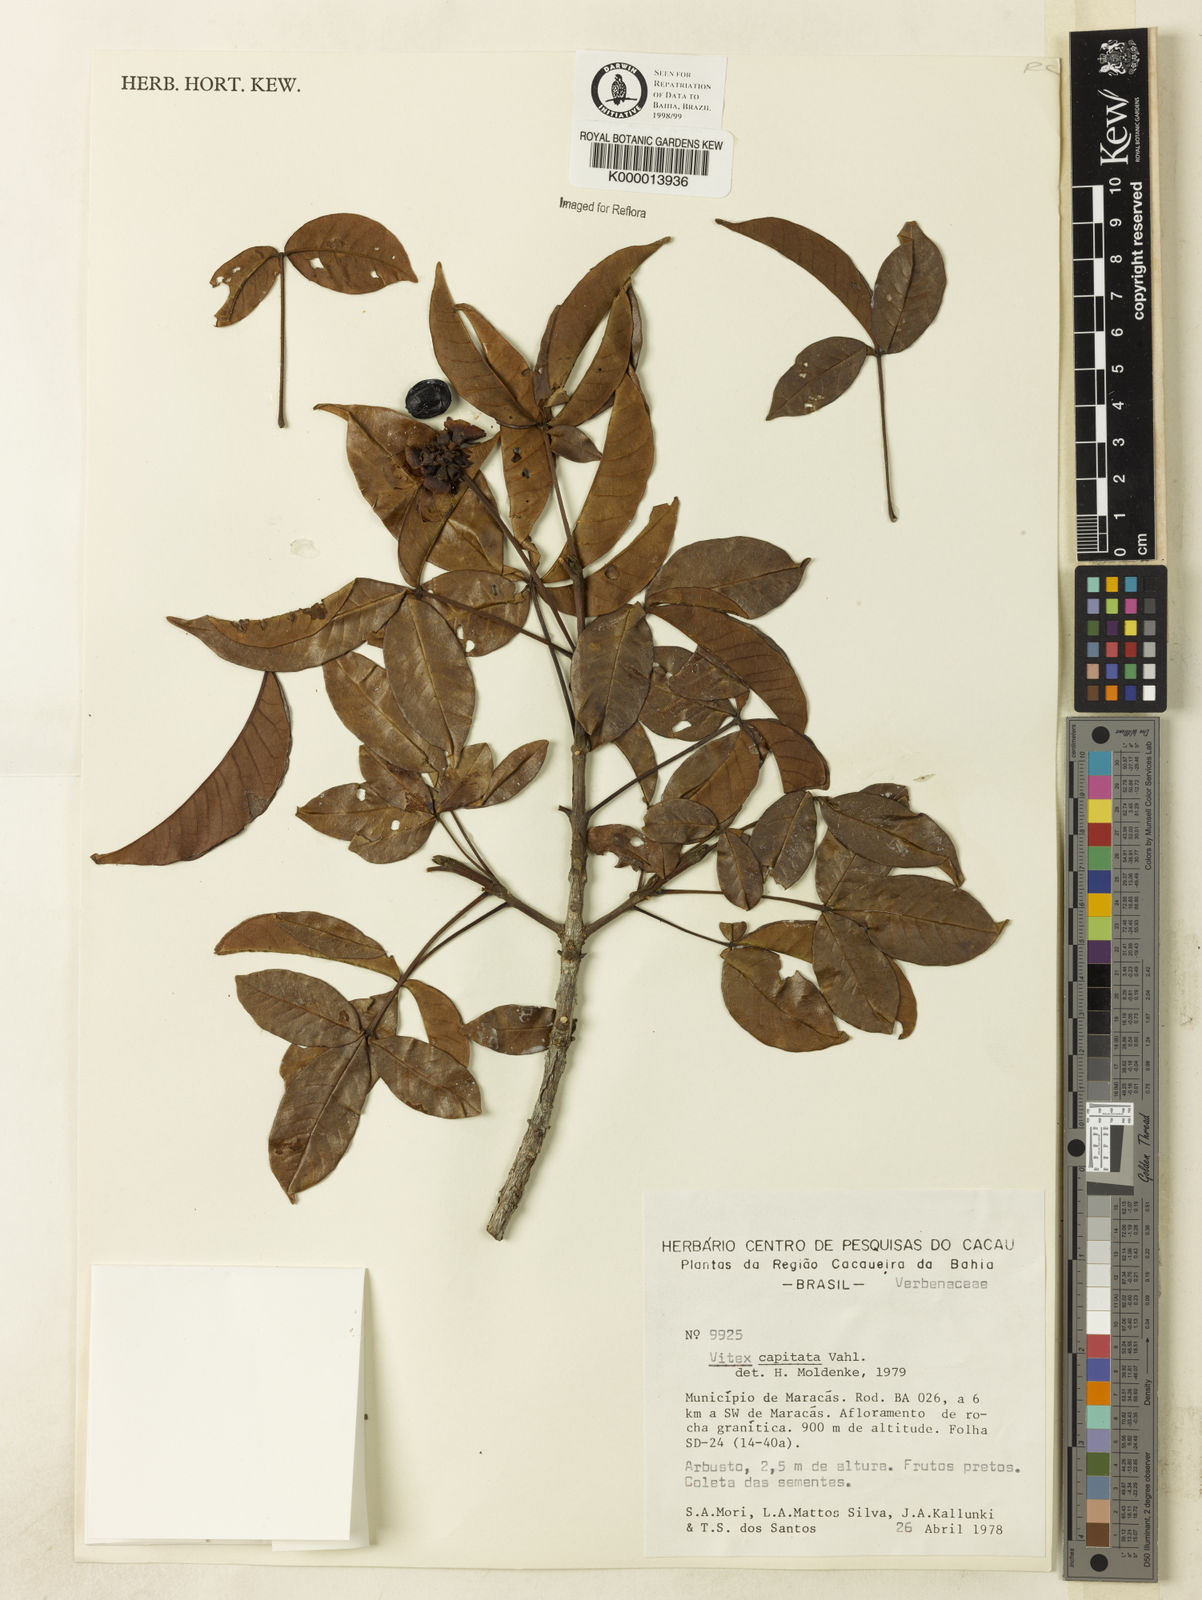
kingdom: Plantae
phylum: Tracheophyta
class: Magnoliopsida
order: Lamiales
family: Lamiaceae
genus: Vitex
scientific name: Vitex capitata
